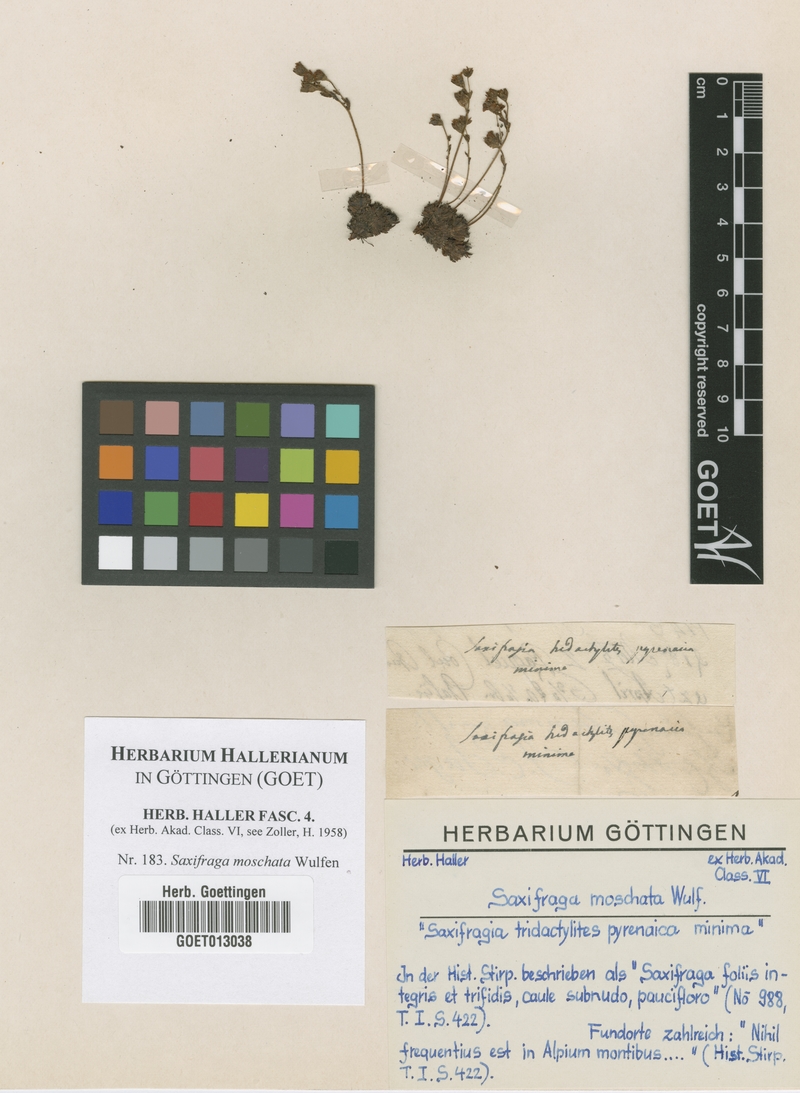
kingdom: Plantae
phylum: Tracheophyta
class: Magnoliopsida
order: Saxifragales
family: Saxifragaceae
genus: Saxifraga
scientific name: Saxifraga moschata
